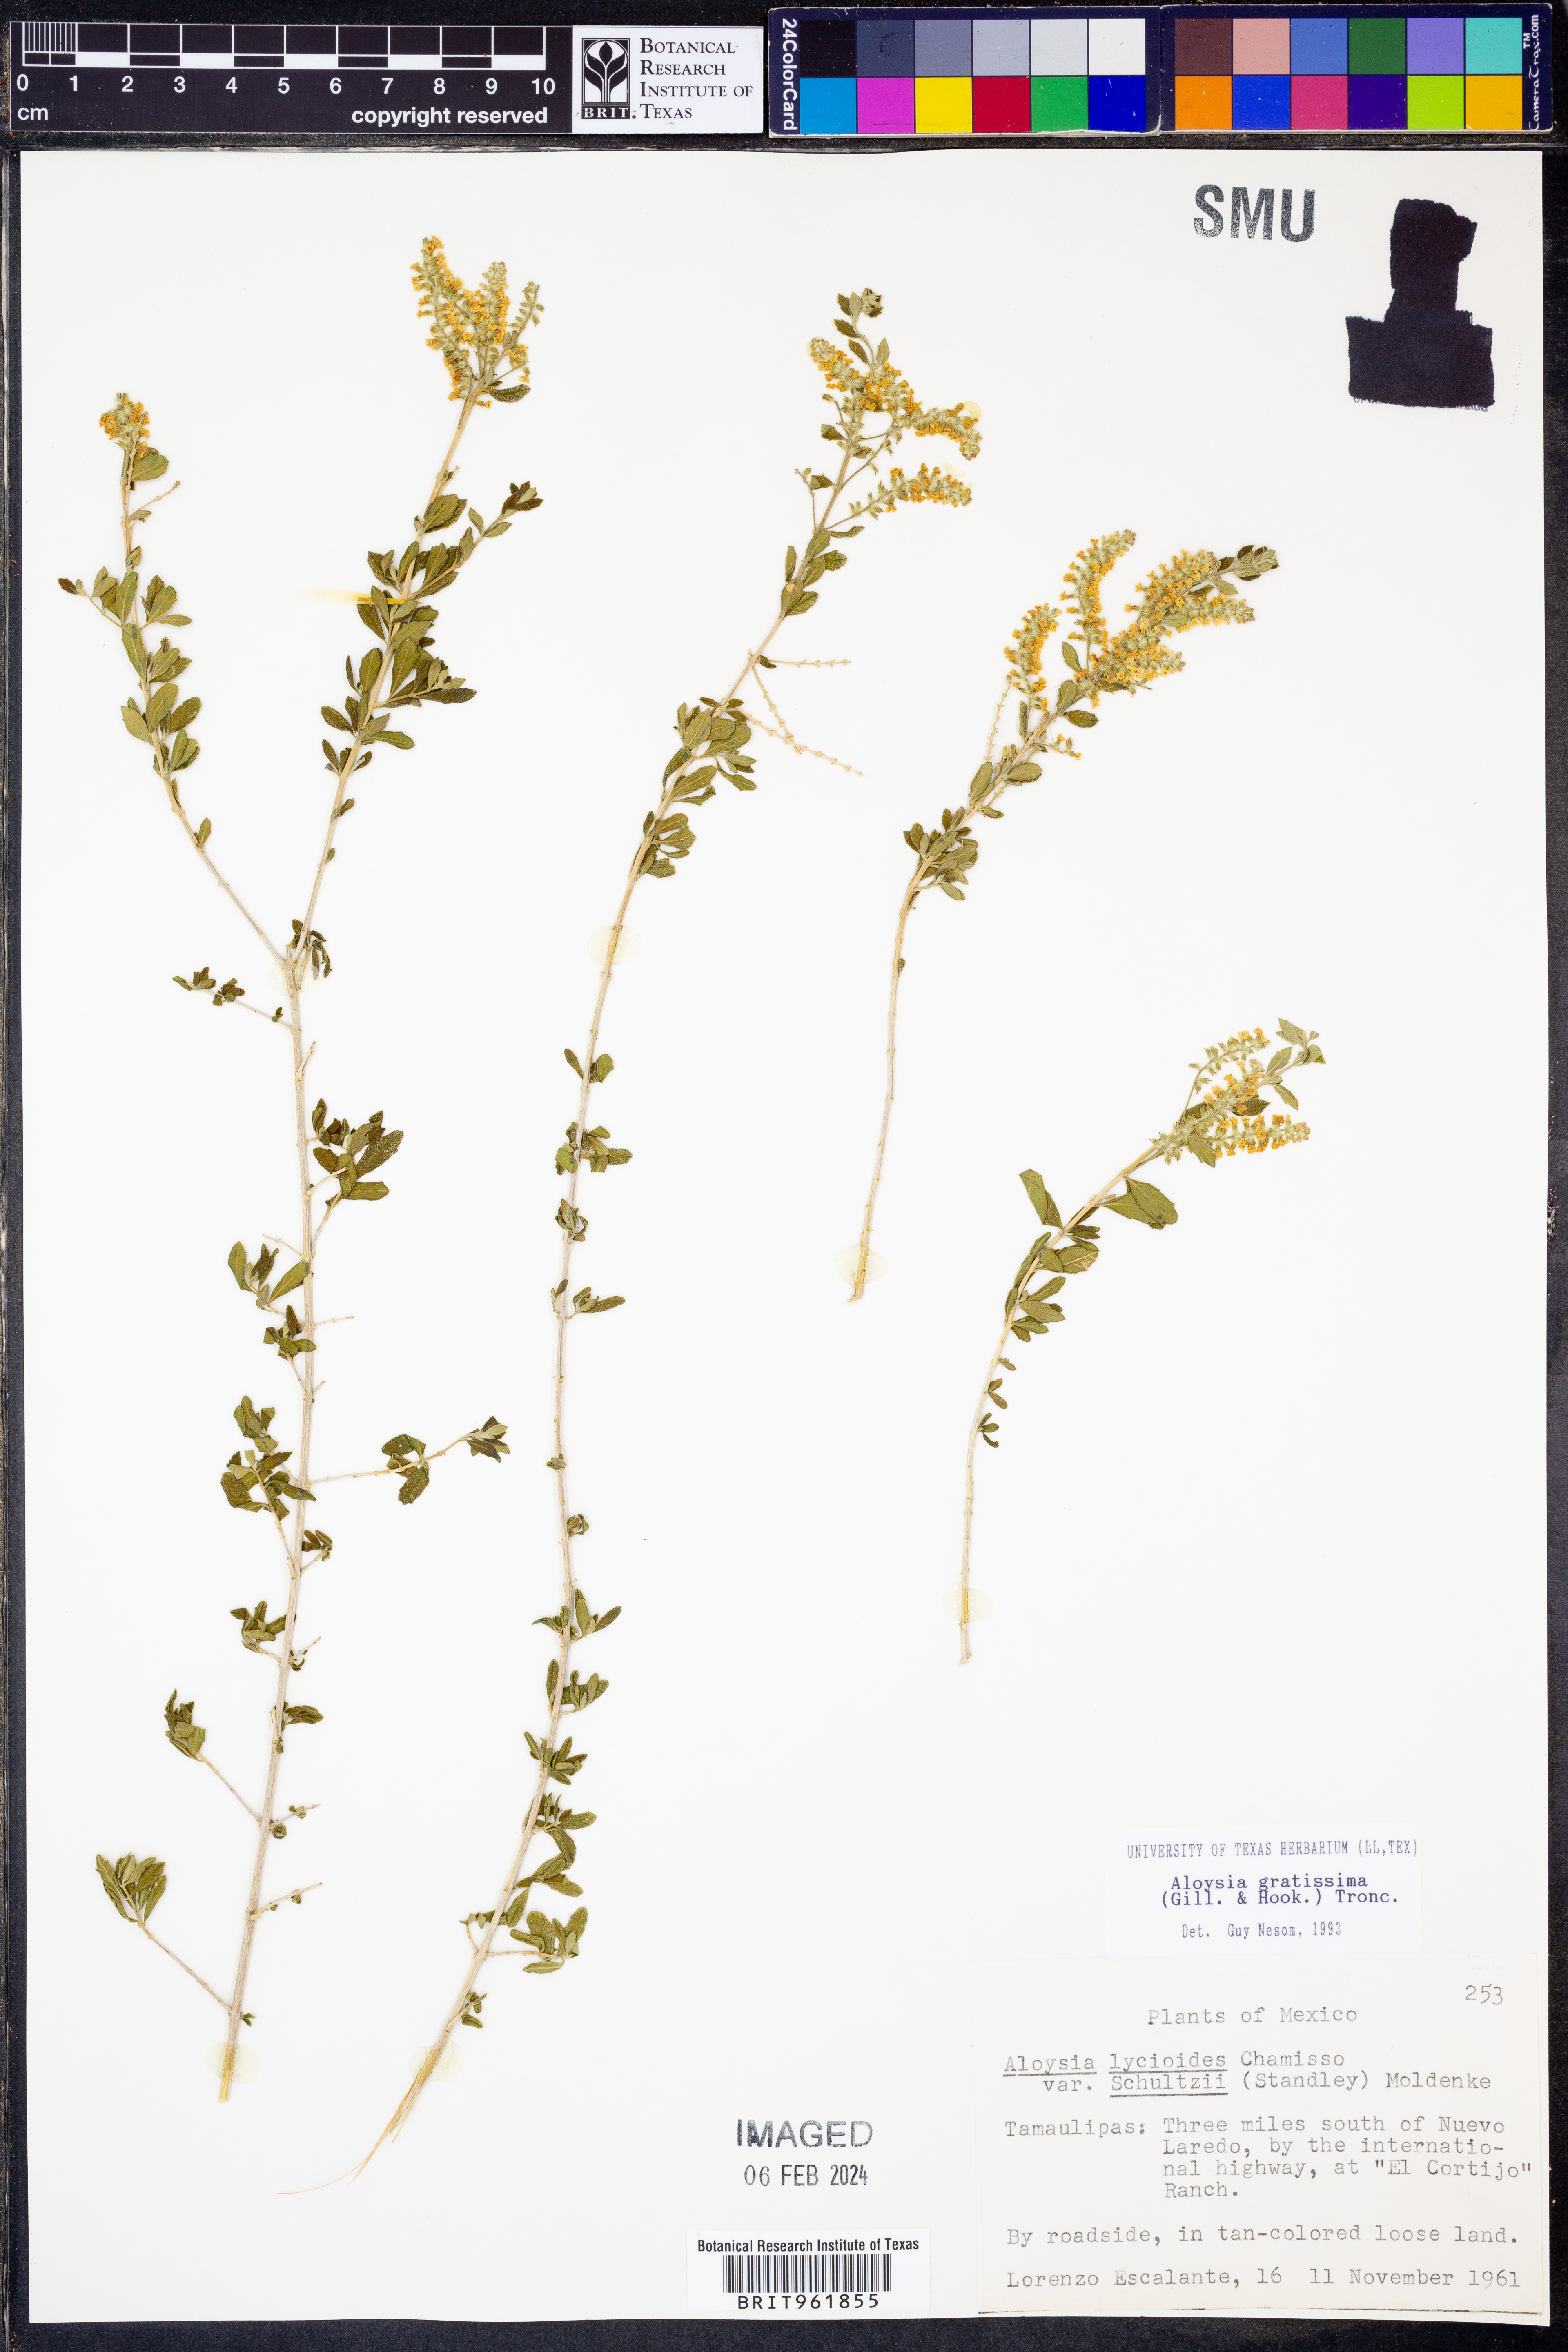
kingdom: Plantae
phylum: Tracheophyta
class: Magnoliopsida
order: Lamiales
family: Verbenaceae
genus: Aloysia
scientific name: Aloysia gratissima
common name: Common bee-brush
